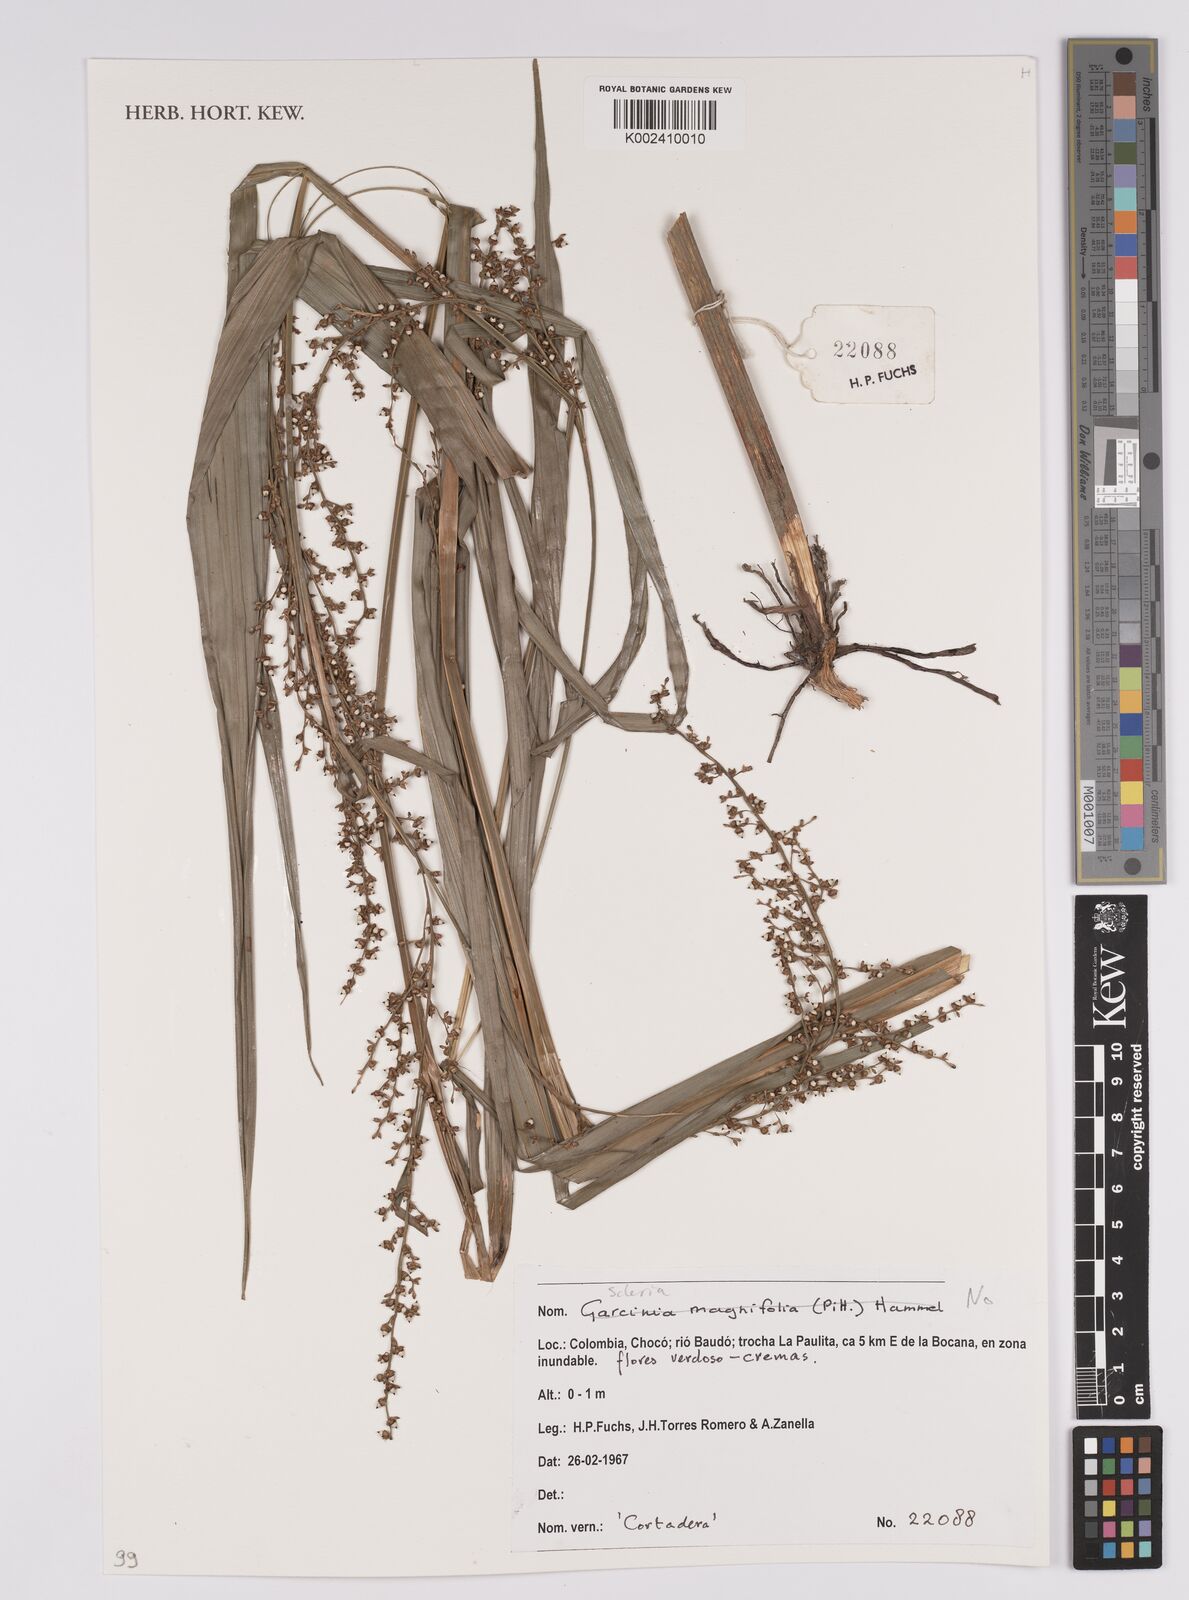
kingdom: Plantae
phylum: Tracheophyta
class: Liliopsida
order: Poales
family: Cyperaceae
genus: Scleria
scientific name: Scleria
